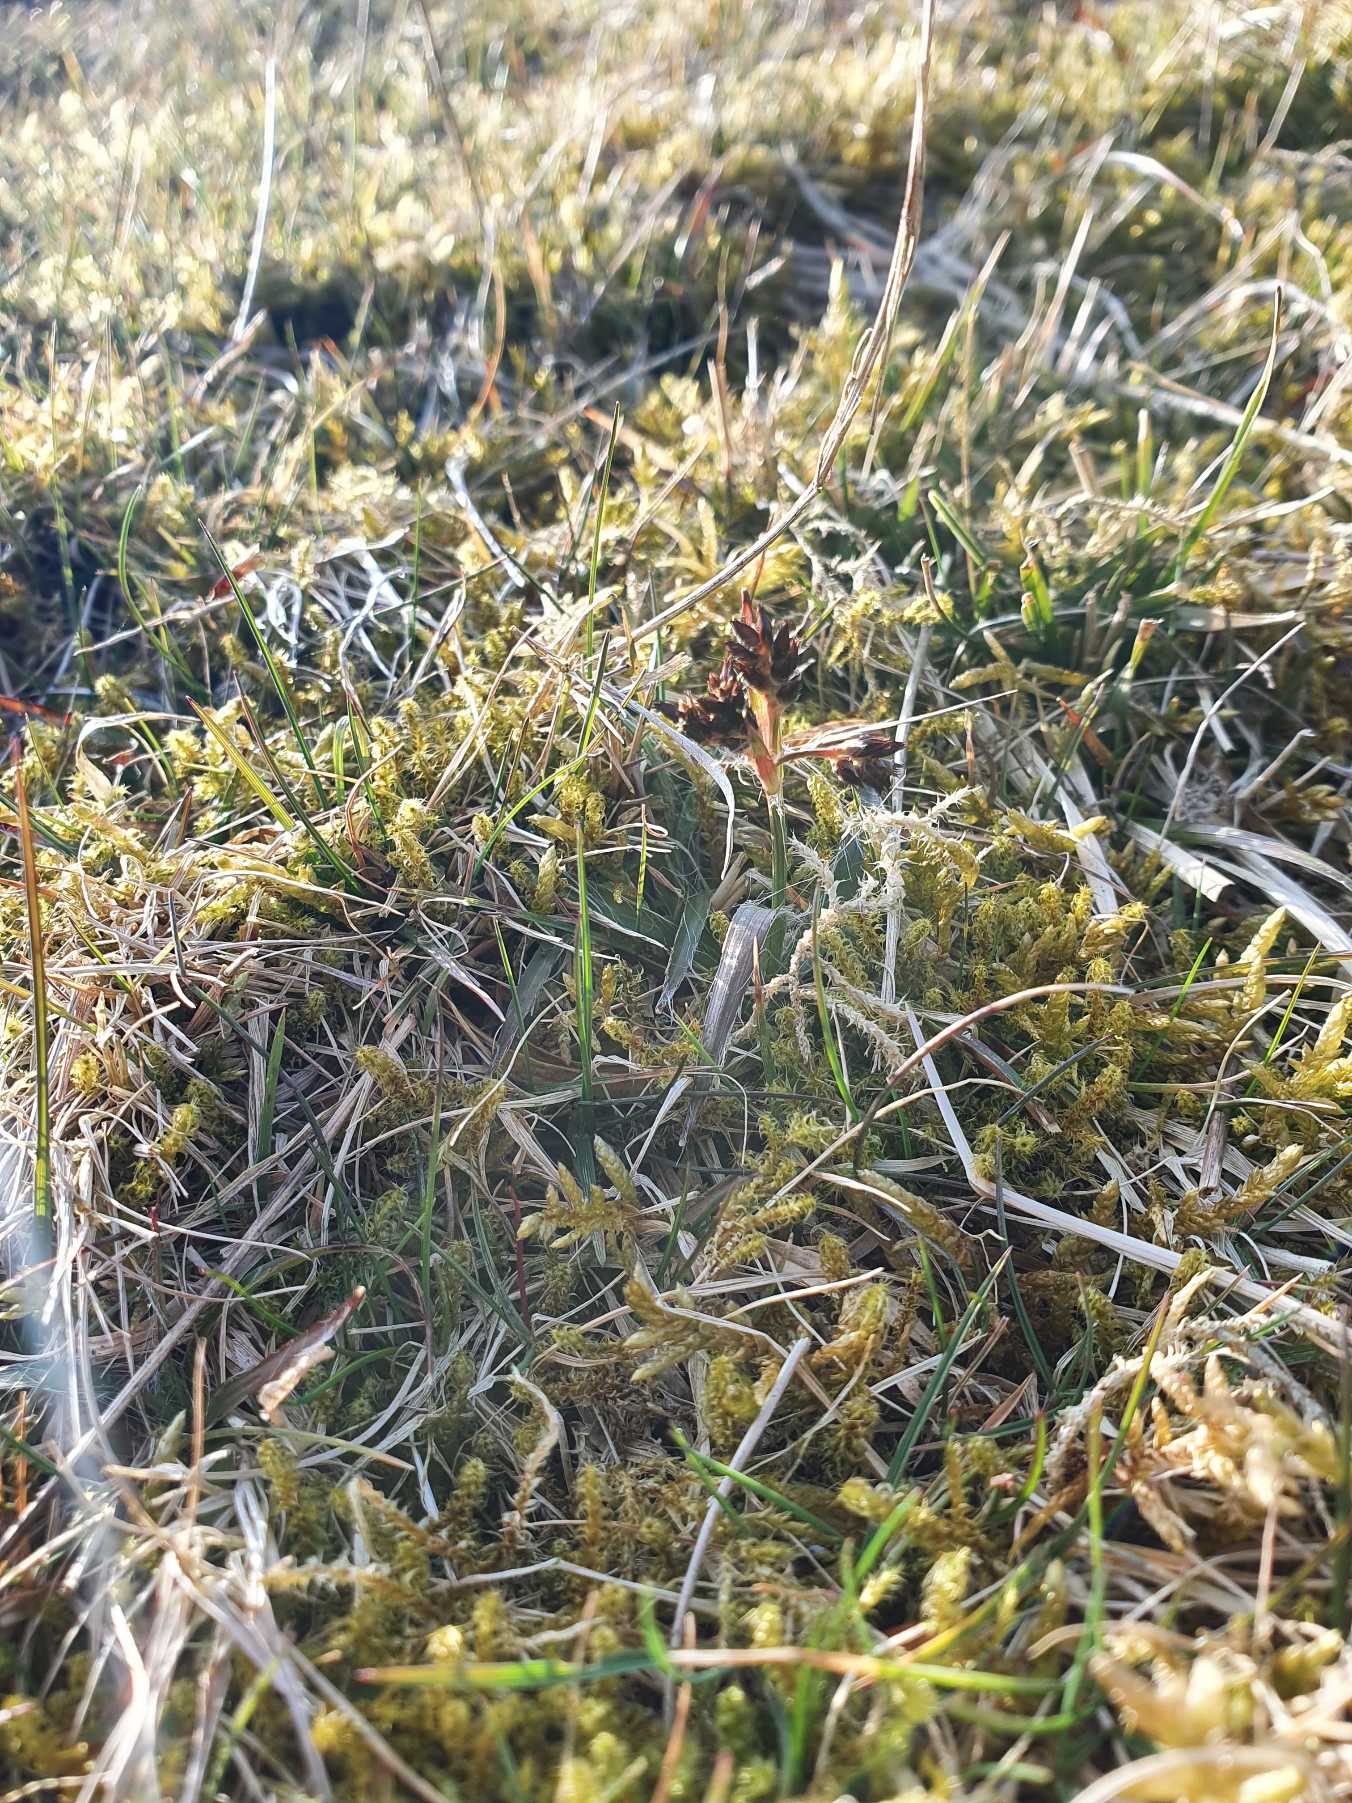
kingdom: Plantae
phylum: Tracheophyta
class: Liliopsida
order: Poales
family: Juncaceae
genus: Luzula
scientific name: Luzula campestris
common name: Mark-frytle
